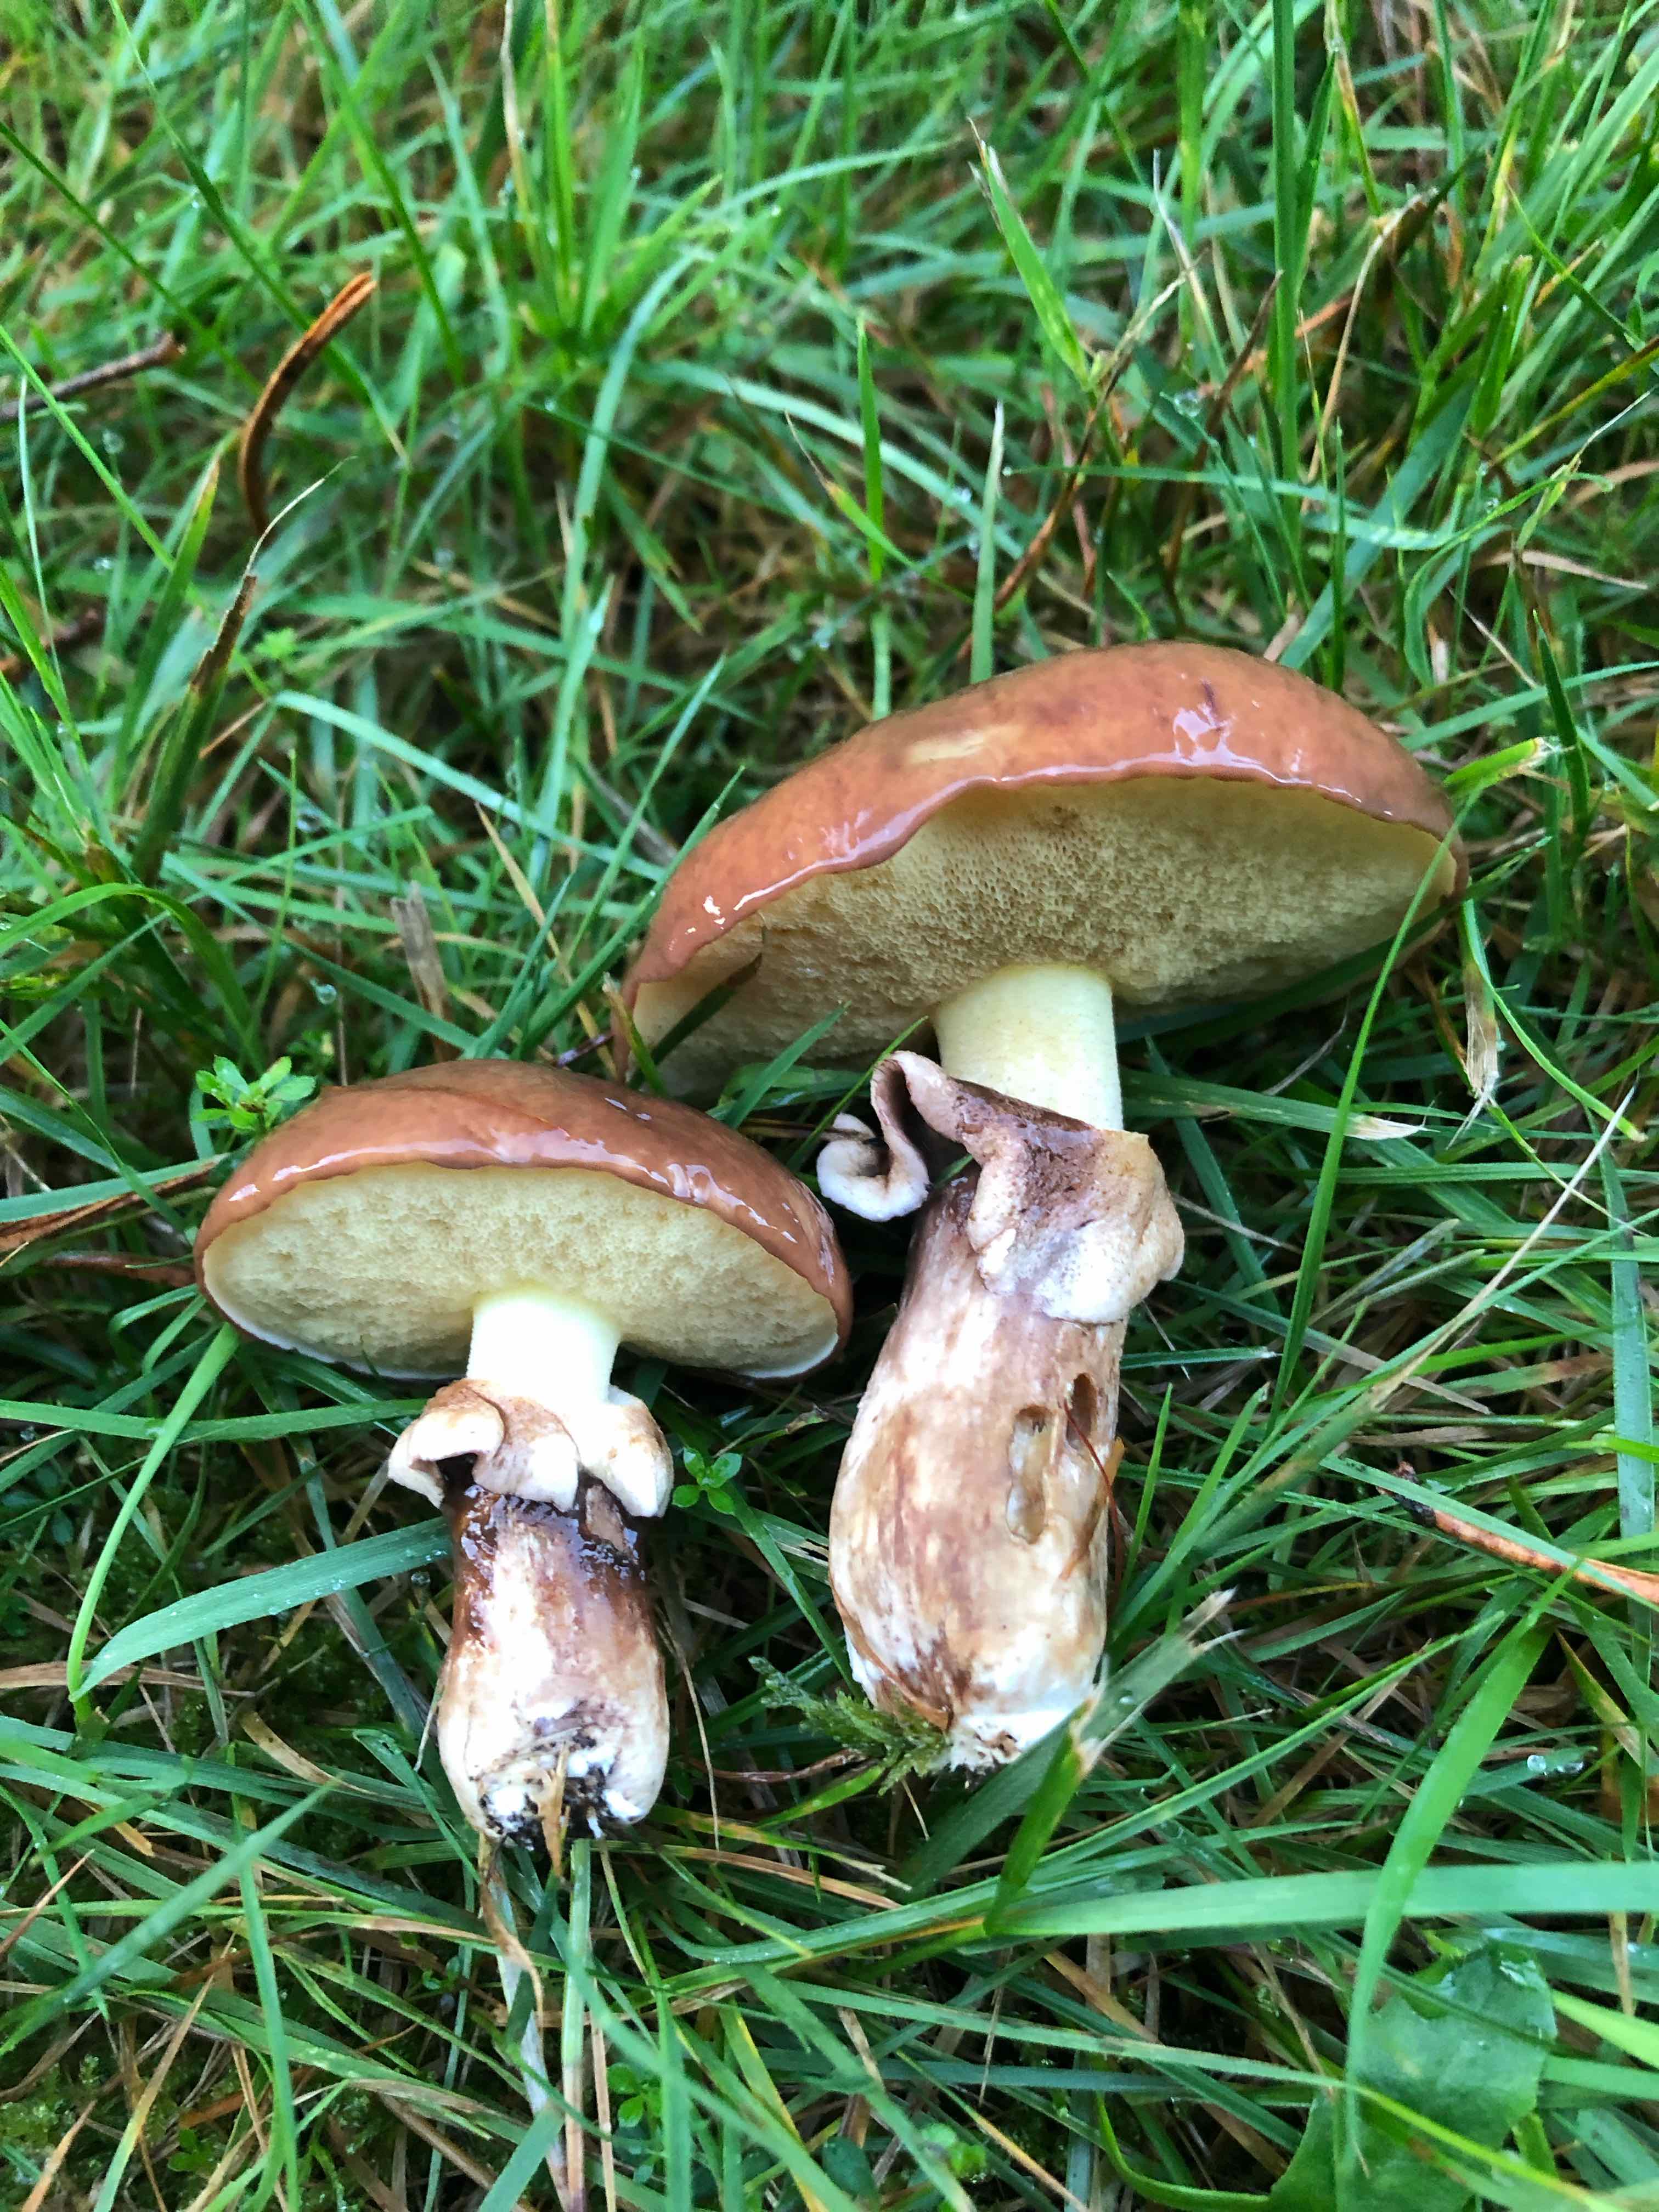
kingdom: Fungi
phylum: Basidiomycota
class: Agaricomycetes
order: Boletales
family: Suillaceae
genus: Suillus
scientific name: Suillus luteus
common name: brungul slimrørhat
